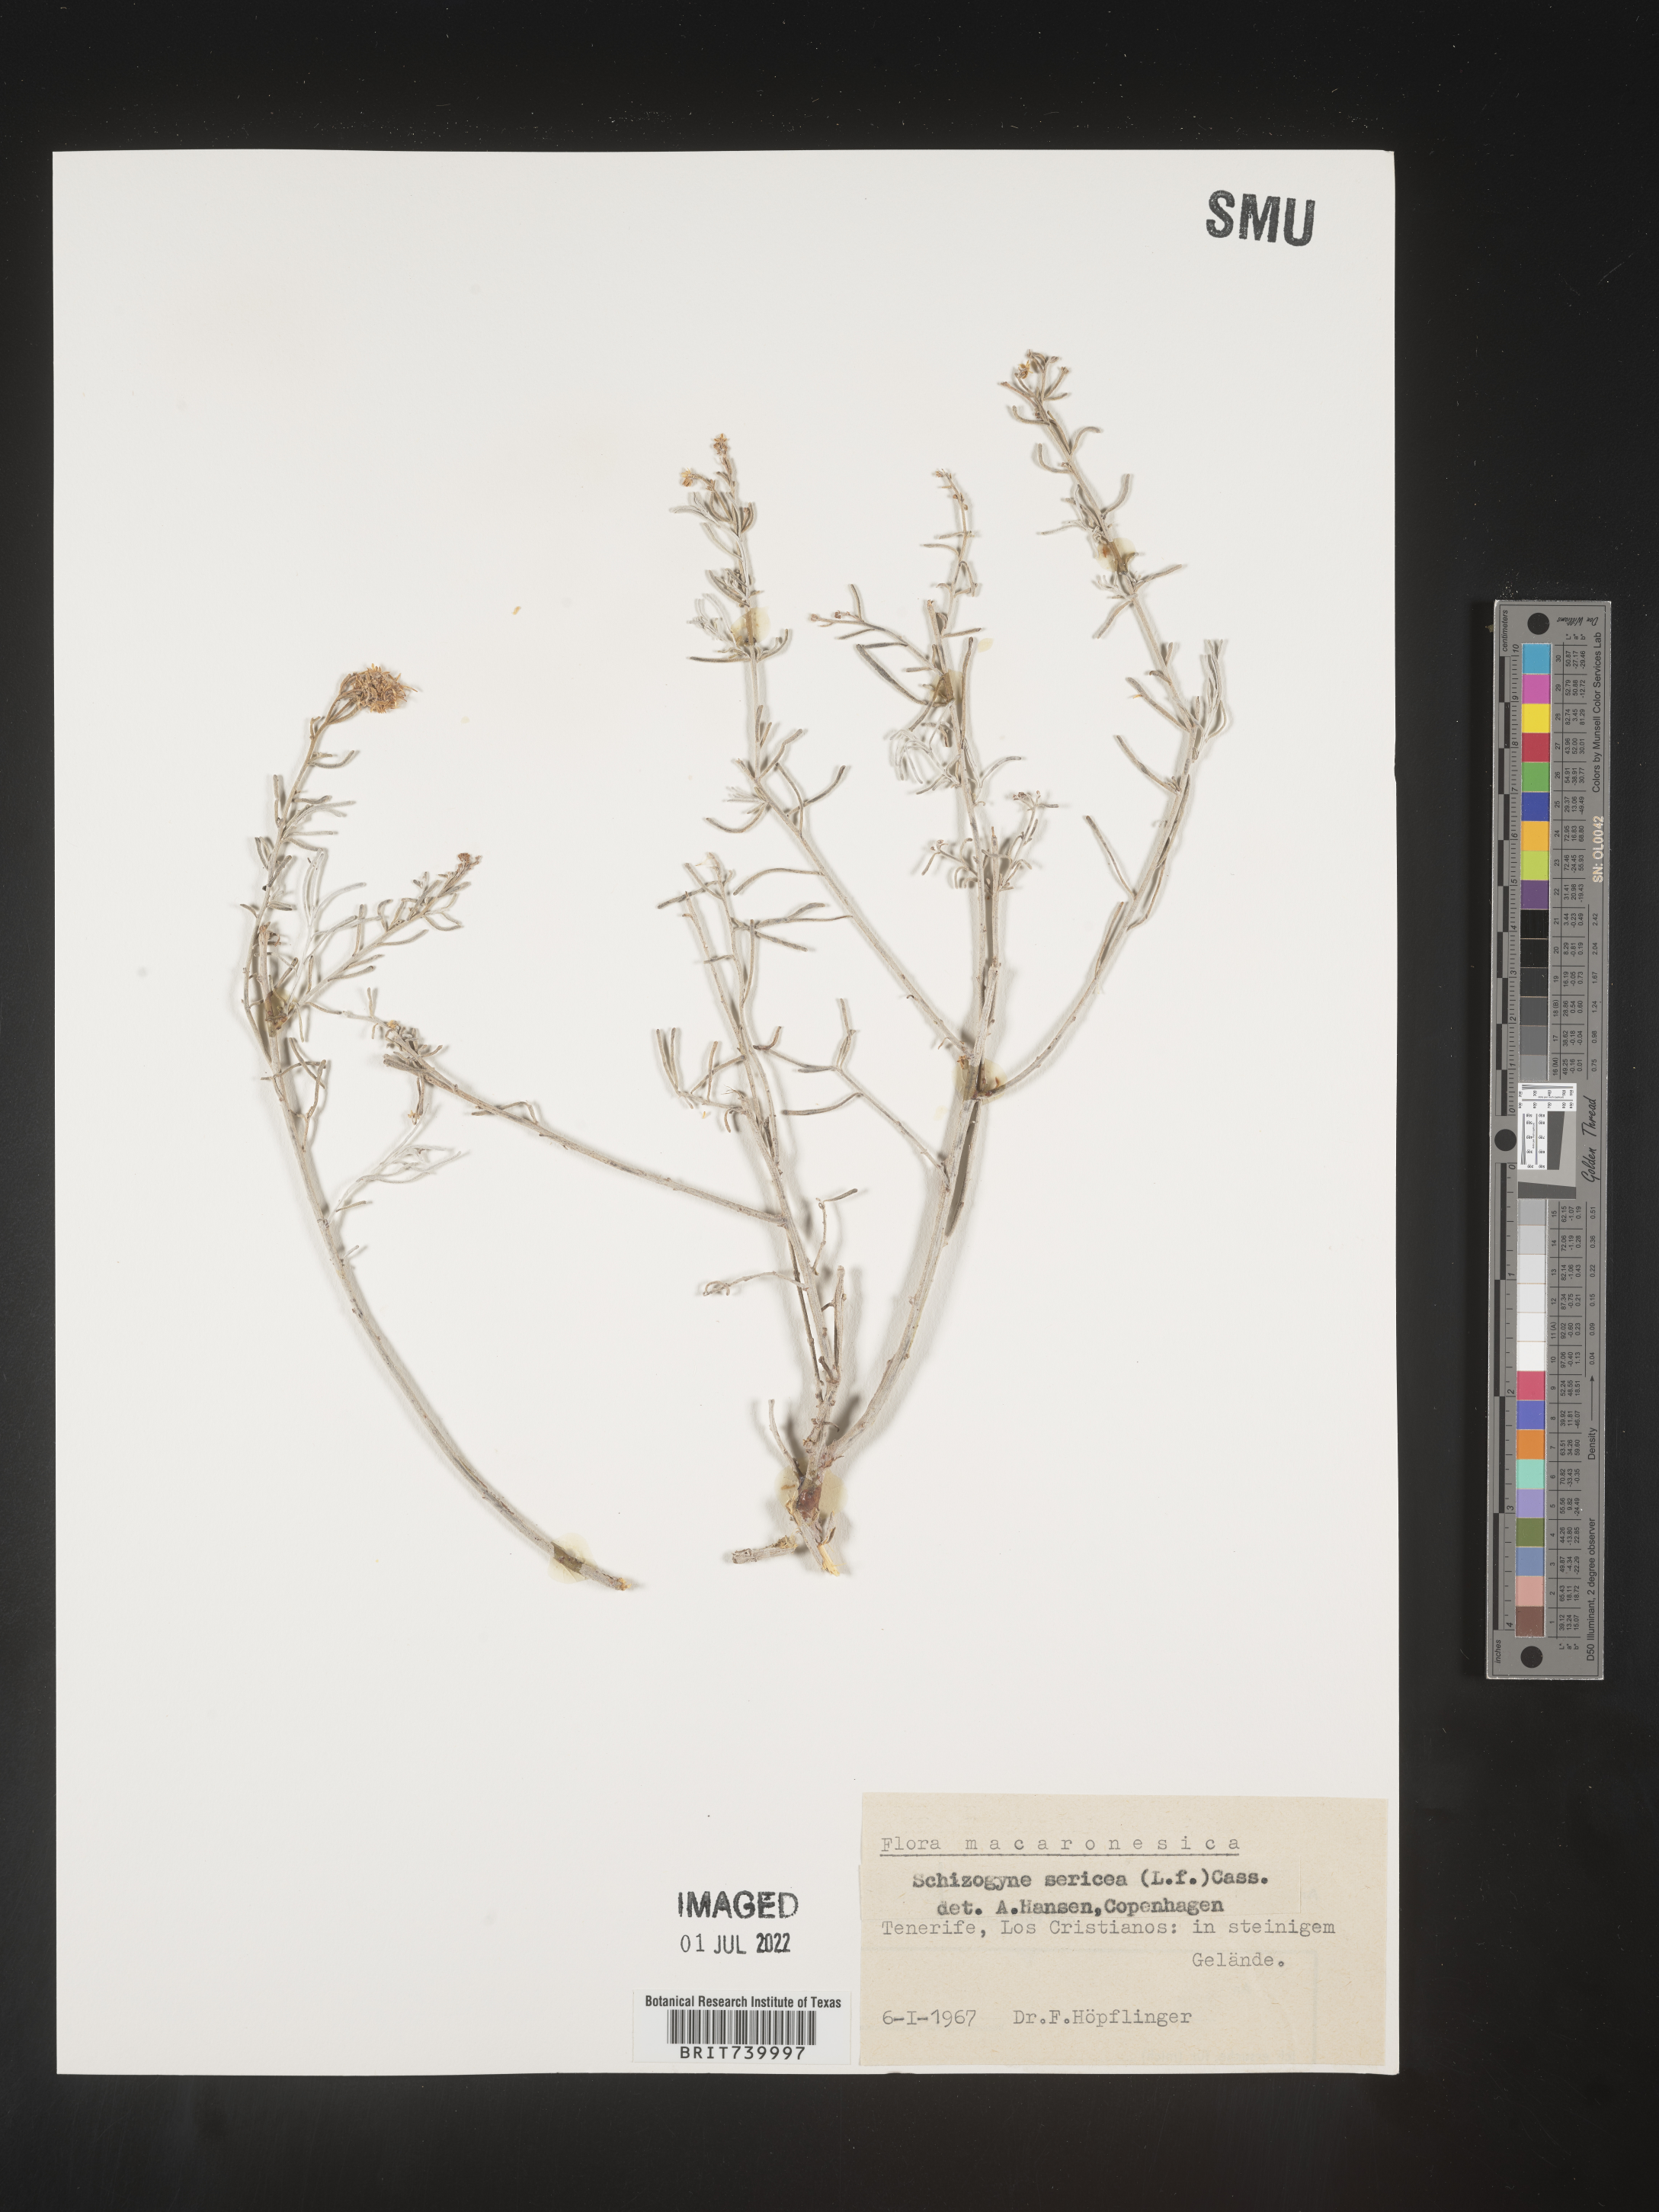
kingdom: Plantae
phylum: Tracheophyta
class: Magnoliopsida
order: Asterales
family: Asteraceae
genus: Schizogyne
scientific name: Schizogyne
